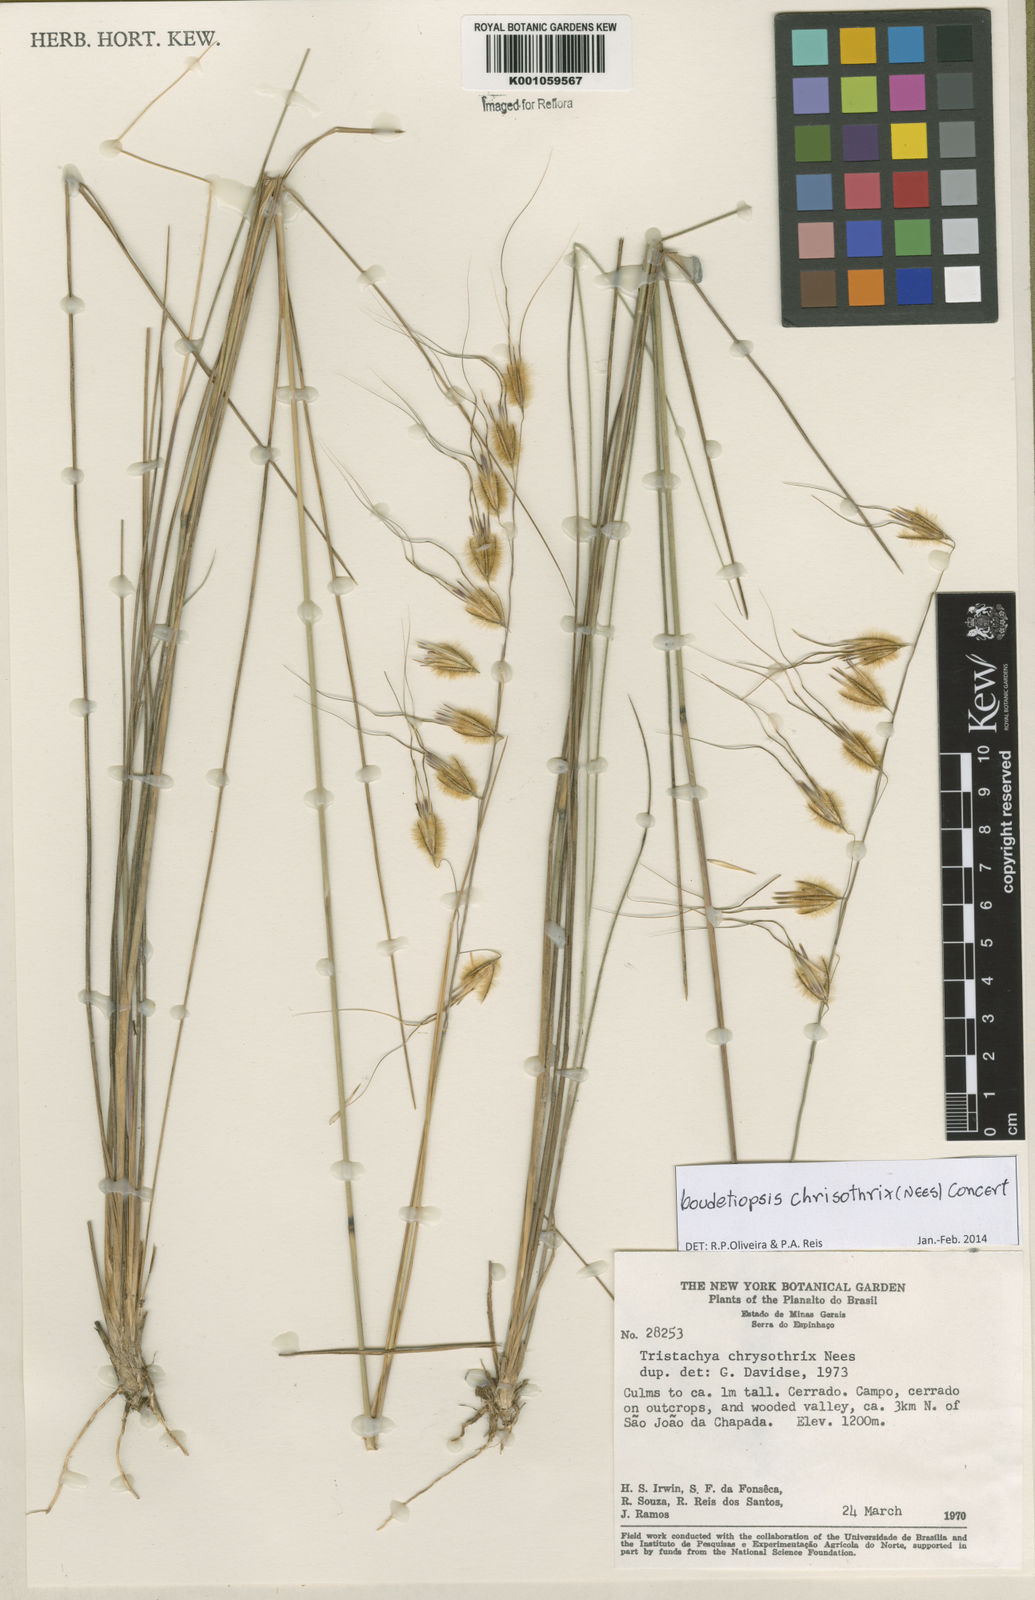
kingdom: Plantae
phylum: Tracheophyta
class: Liliopsida
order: Poales
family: Poaceae
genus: Loudetiopsis
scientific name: Loudetiopsis chrysothrix
